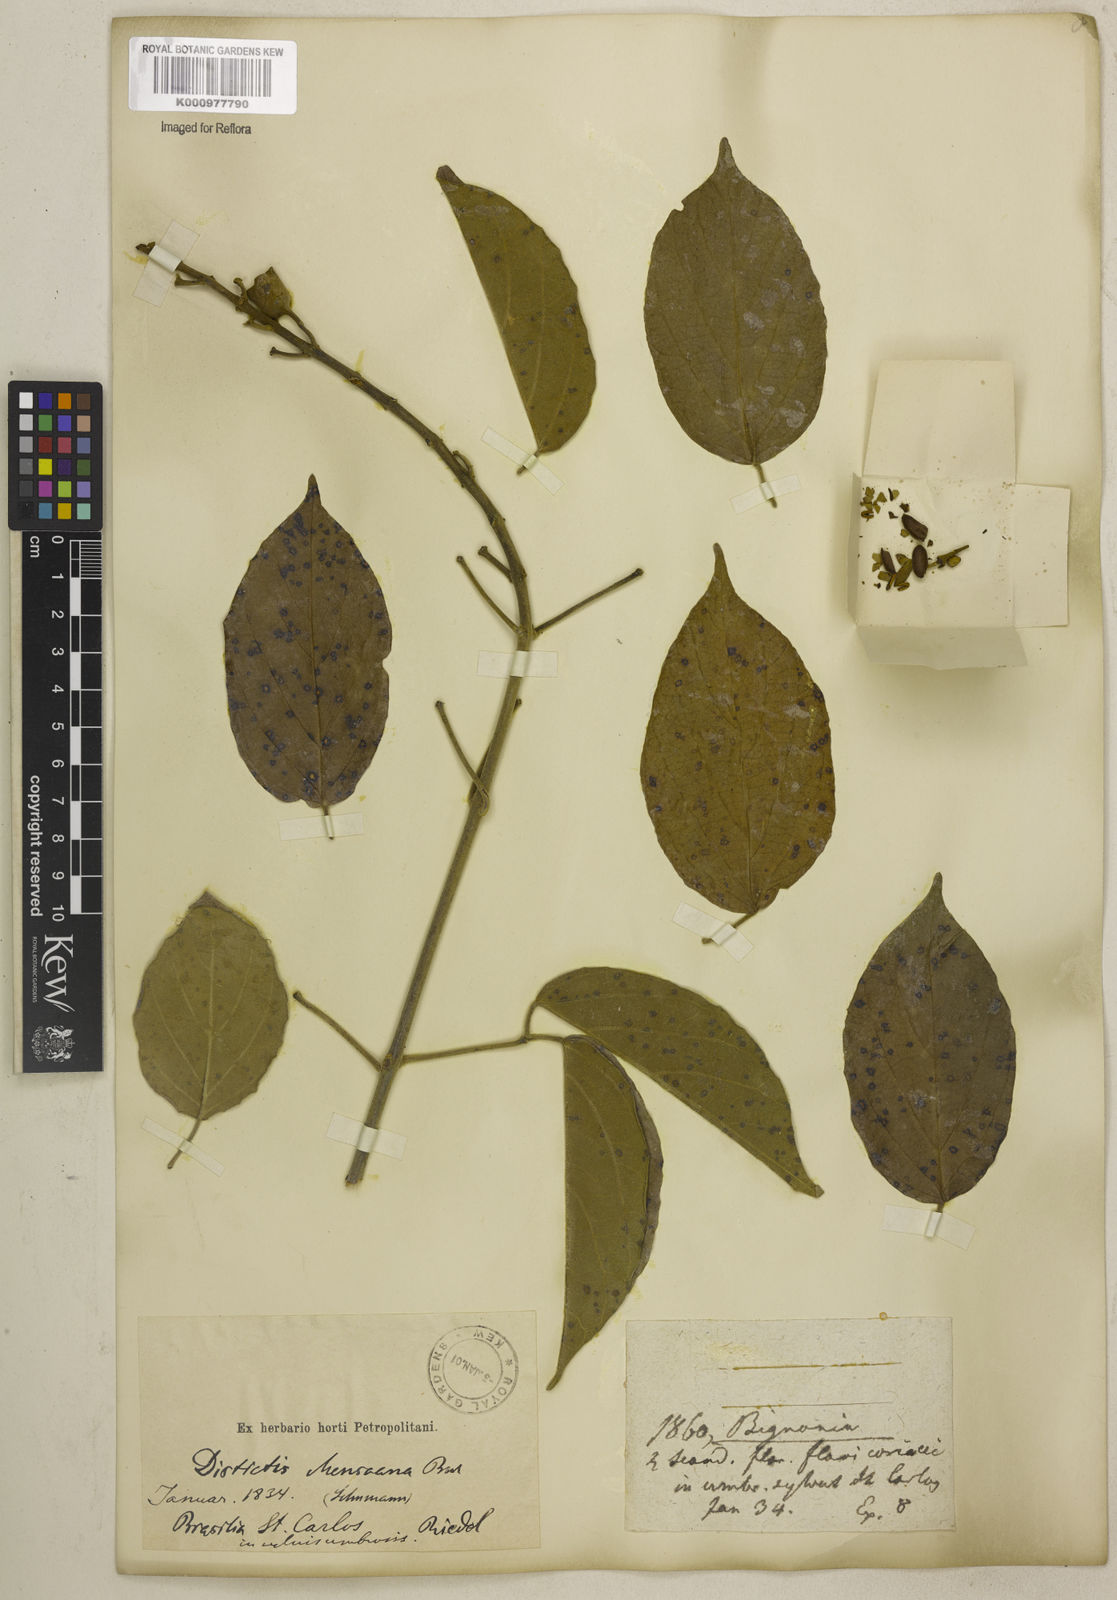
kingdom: Plantae
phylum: Tracheophyta
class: Magnoliopsida
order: Lamiales
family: Bignoniaceae
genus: Amphilophium
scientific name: Amphilophium mansoanum
